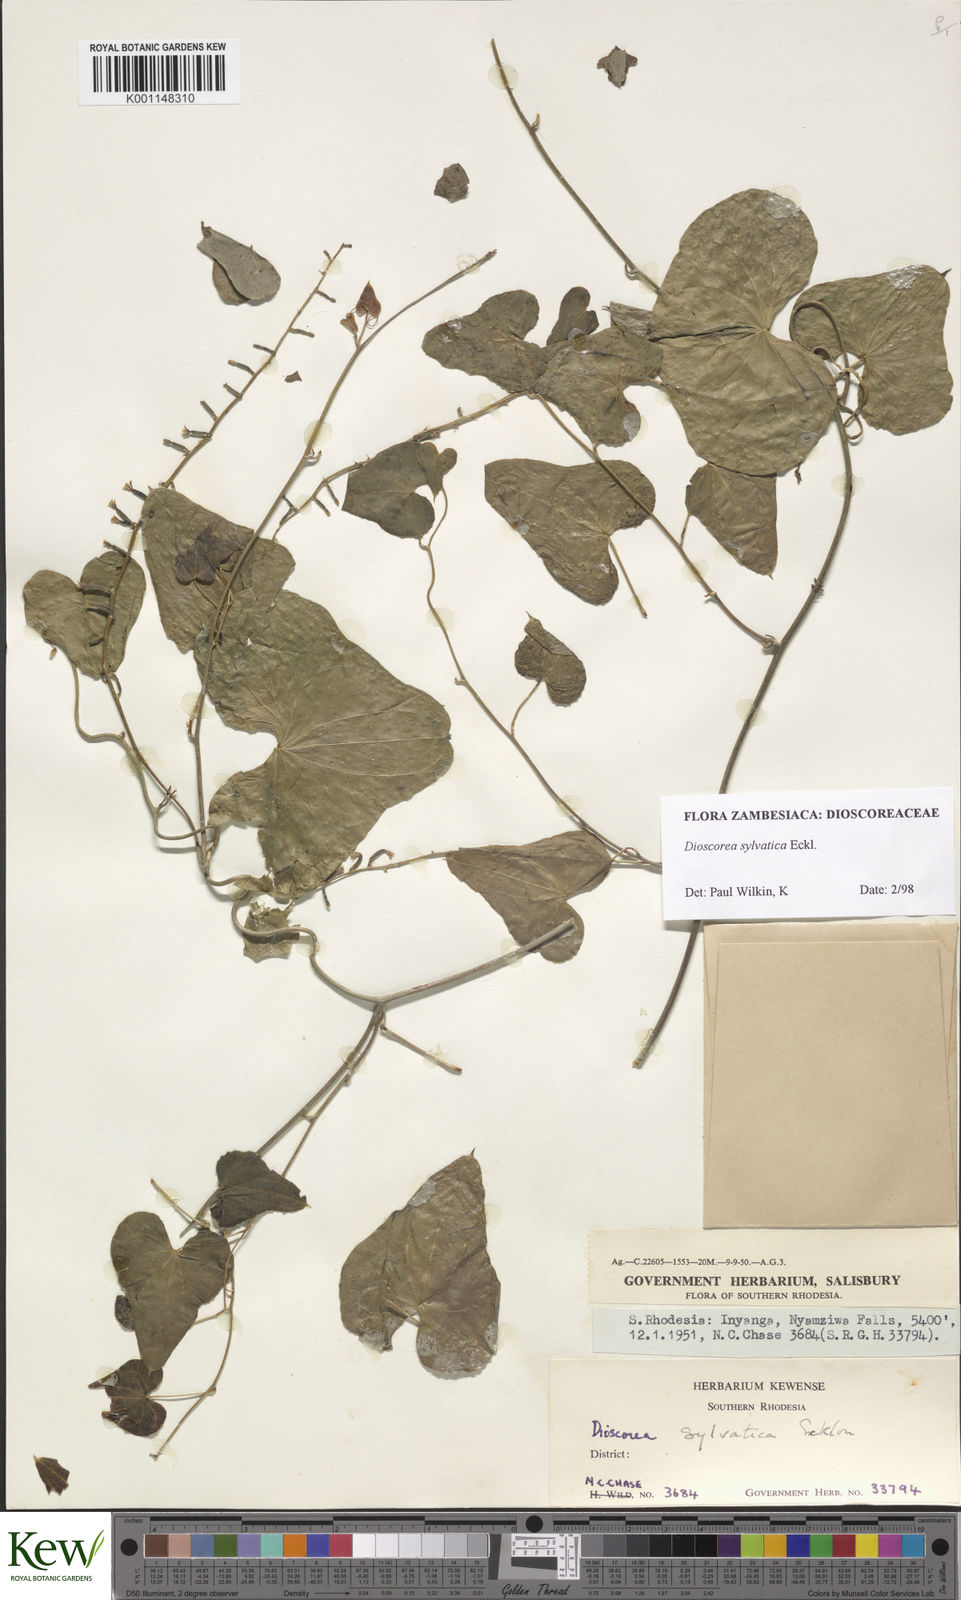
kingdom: Plantae
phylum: Tracheophyta
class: Liliopsida
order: Dioscoreales
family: Dioscoreaceae
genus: Dioscorea
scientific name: Dioscorea sylvatica
